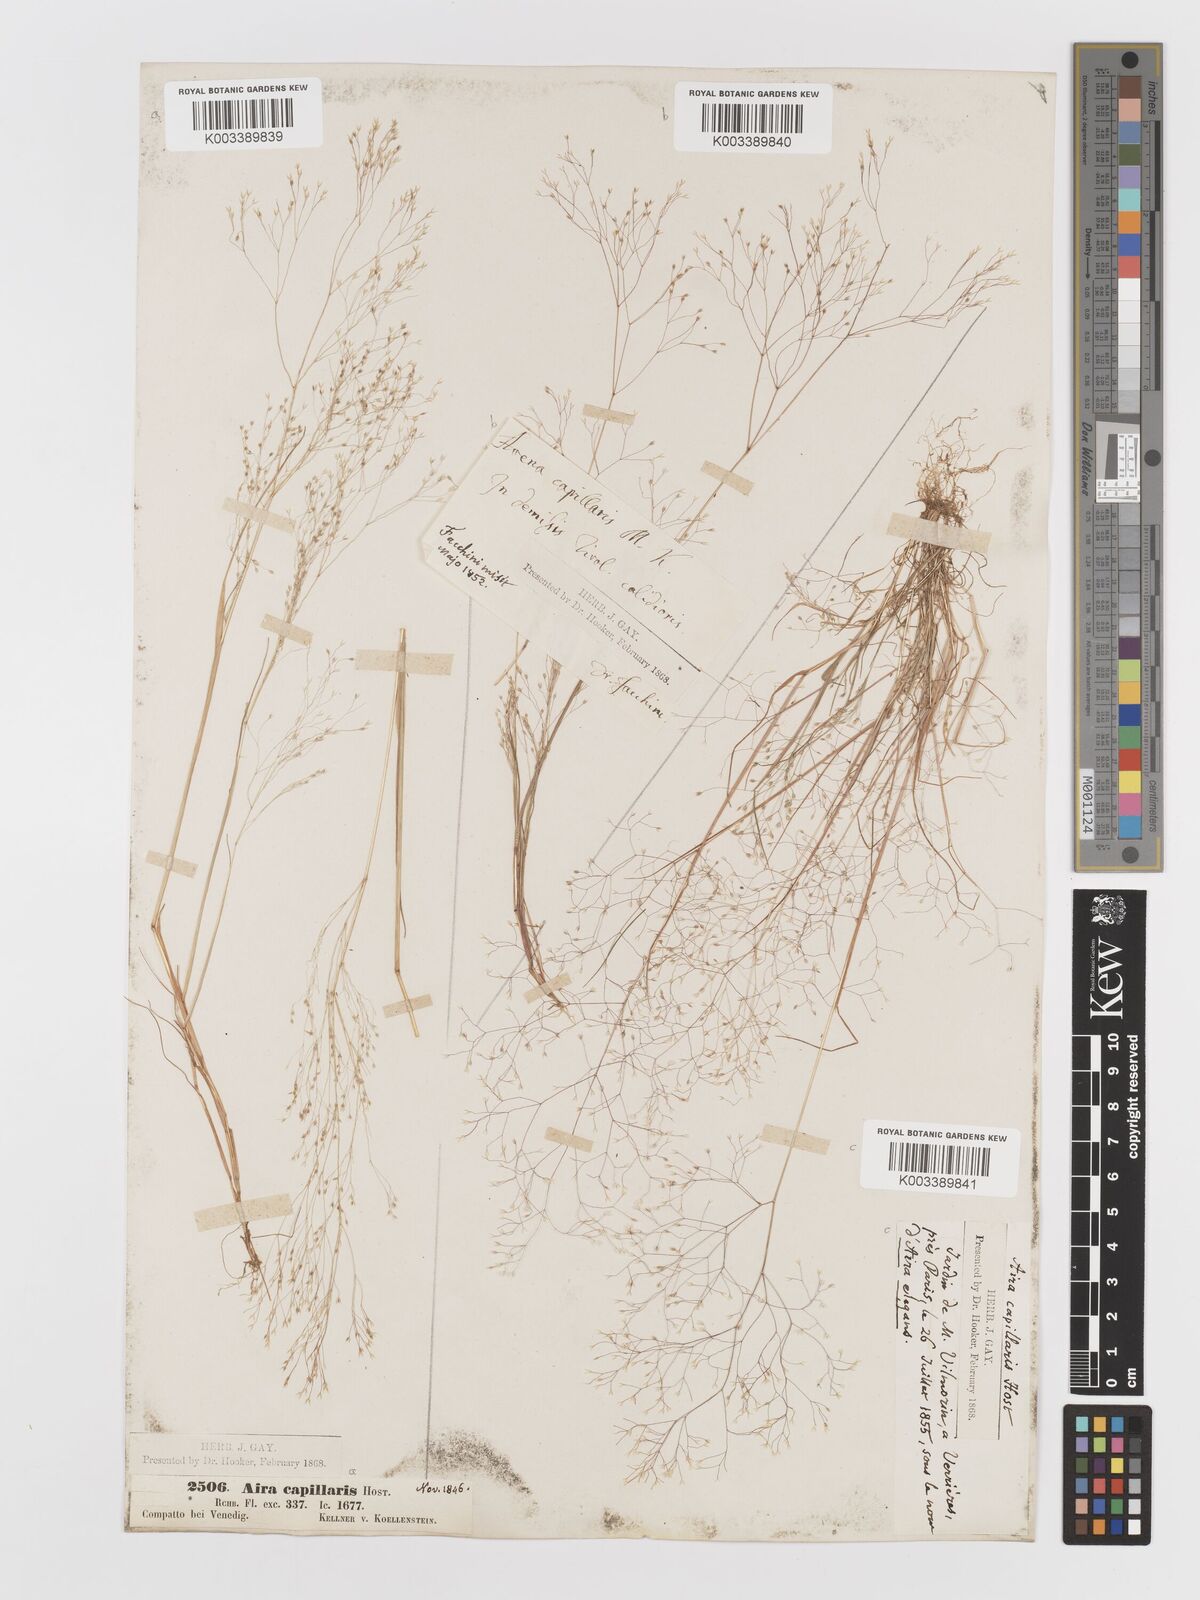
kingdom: Plantae
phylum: Tracheophyta
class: Liliopsida
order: Poales
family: Poaceae
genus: Aira
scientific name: Aira elegans
